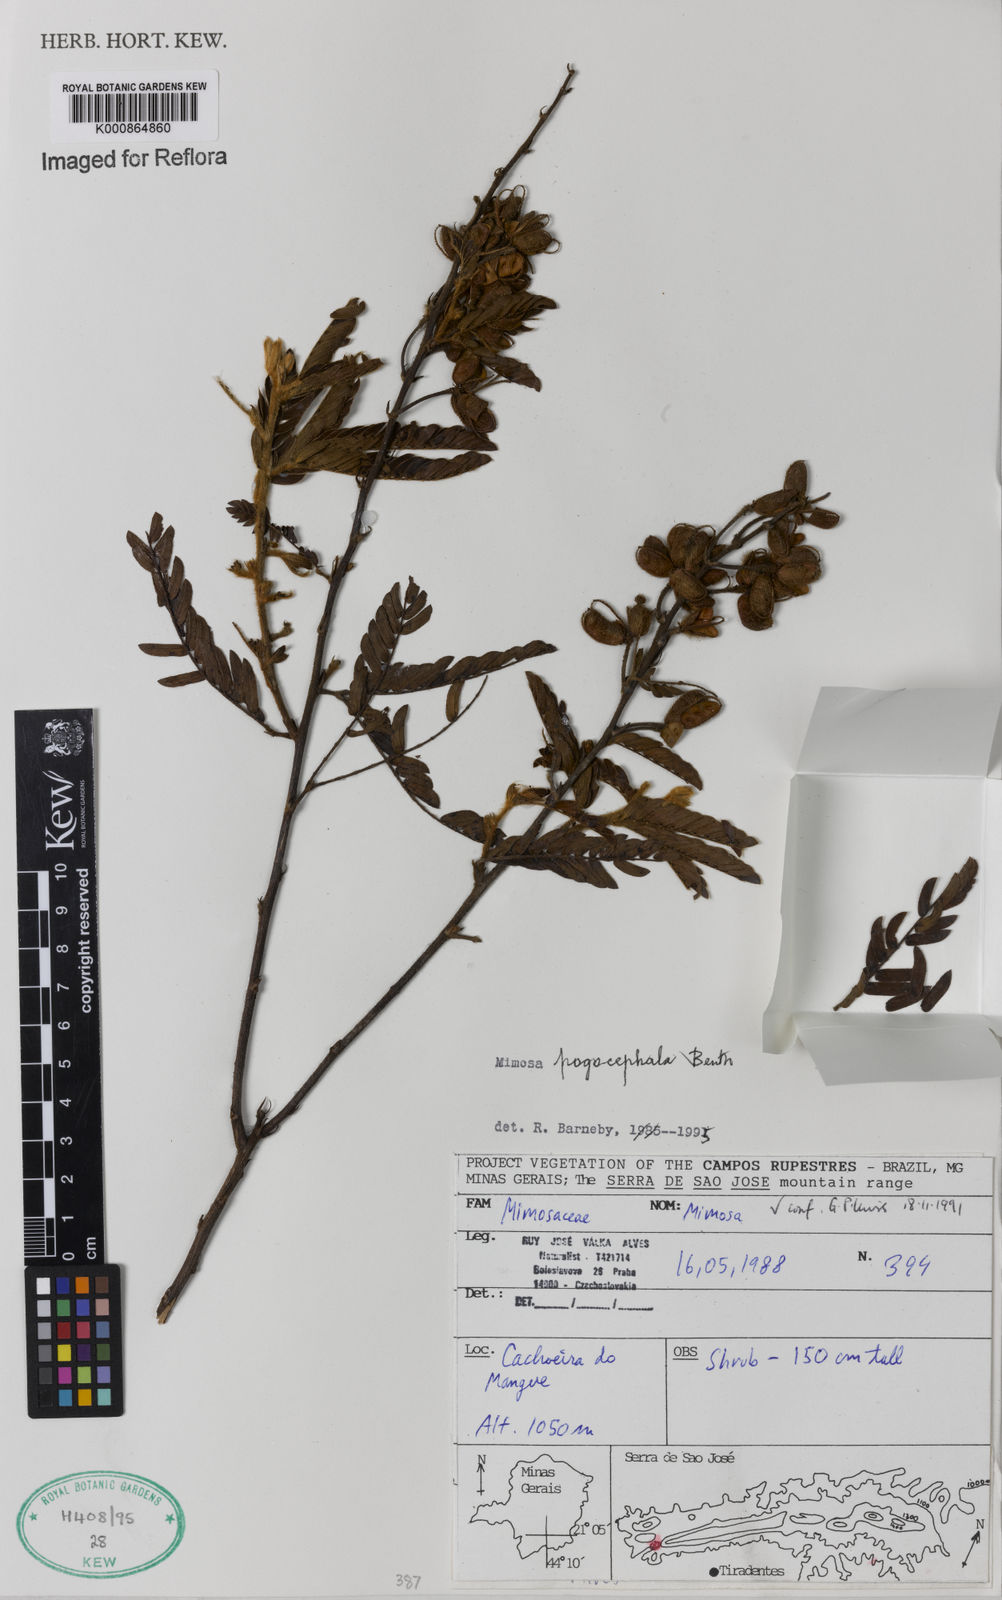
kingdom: Plantae
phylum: Tracheophyta
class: Magnoliopsida
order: Fabales
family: Fabaceae
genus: Mimosa
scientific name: Mimosa pogocephala
